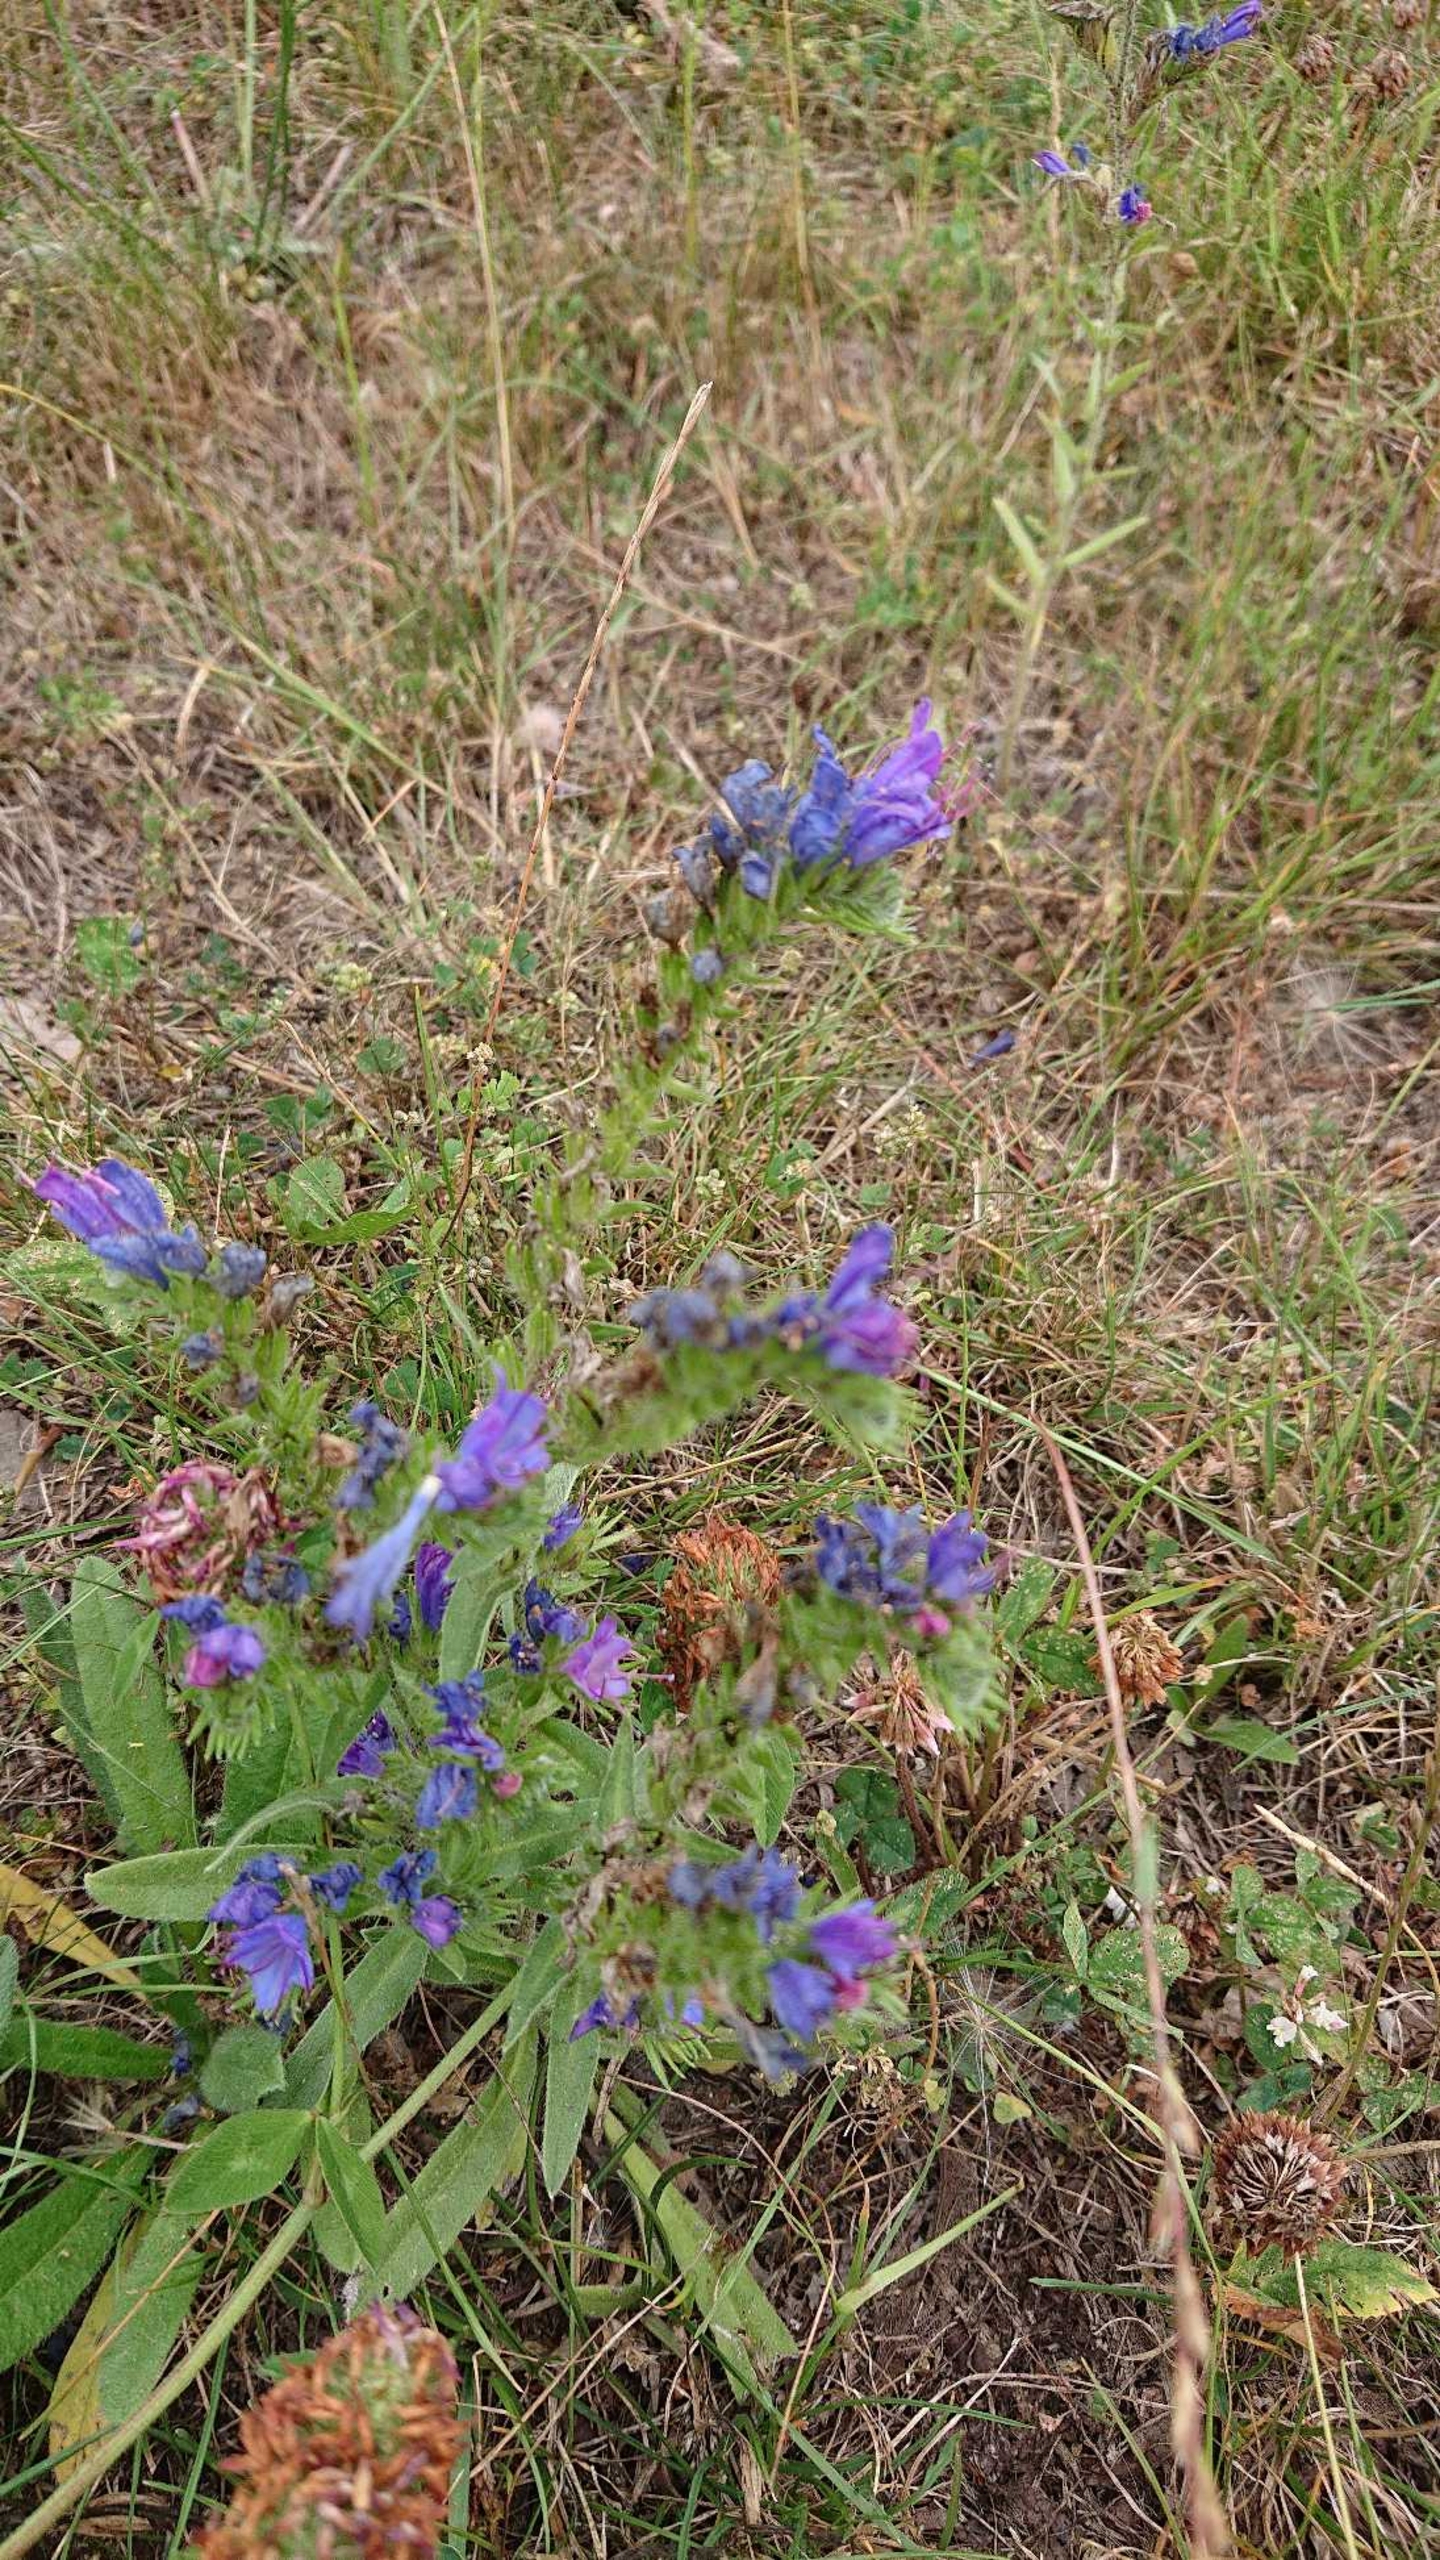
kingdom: Plantae
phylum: Tracheophyta
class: Magnoliopsida
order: Boraginales
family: Boraginaceae
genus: Echium
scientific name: Echium vulgare
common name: Slangehoved
